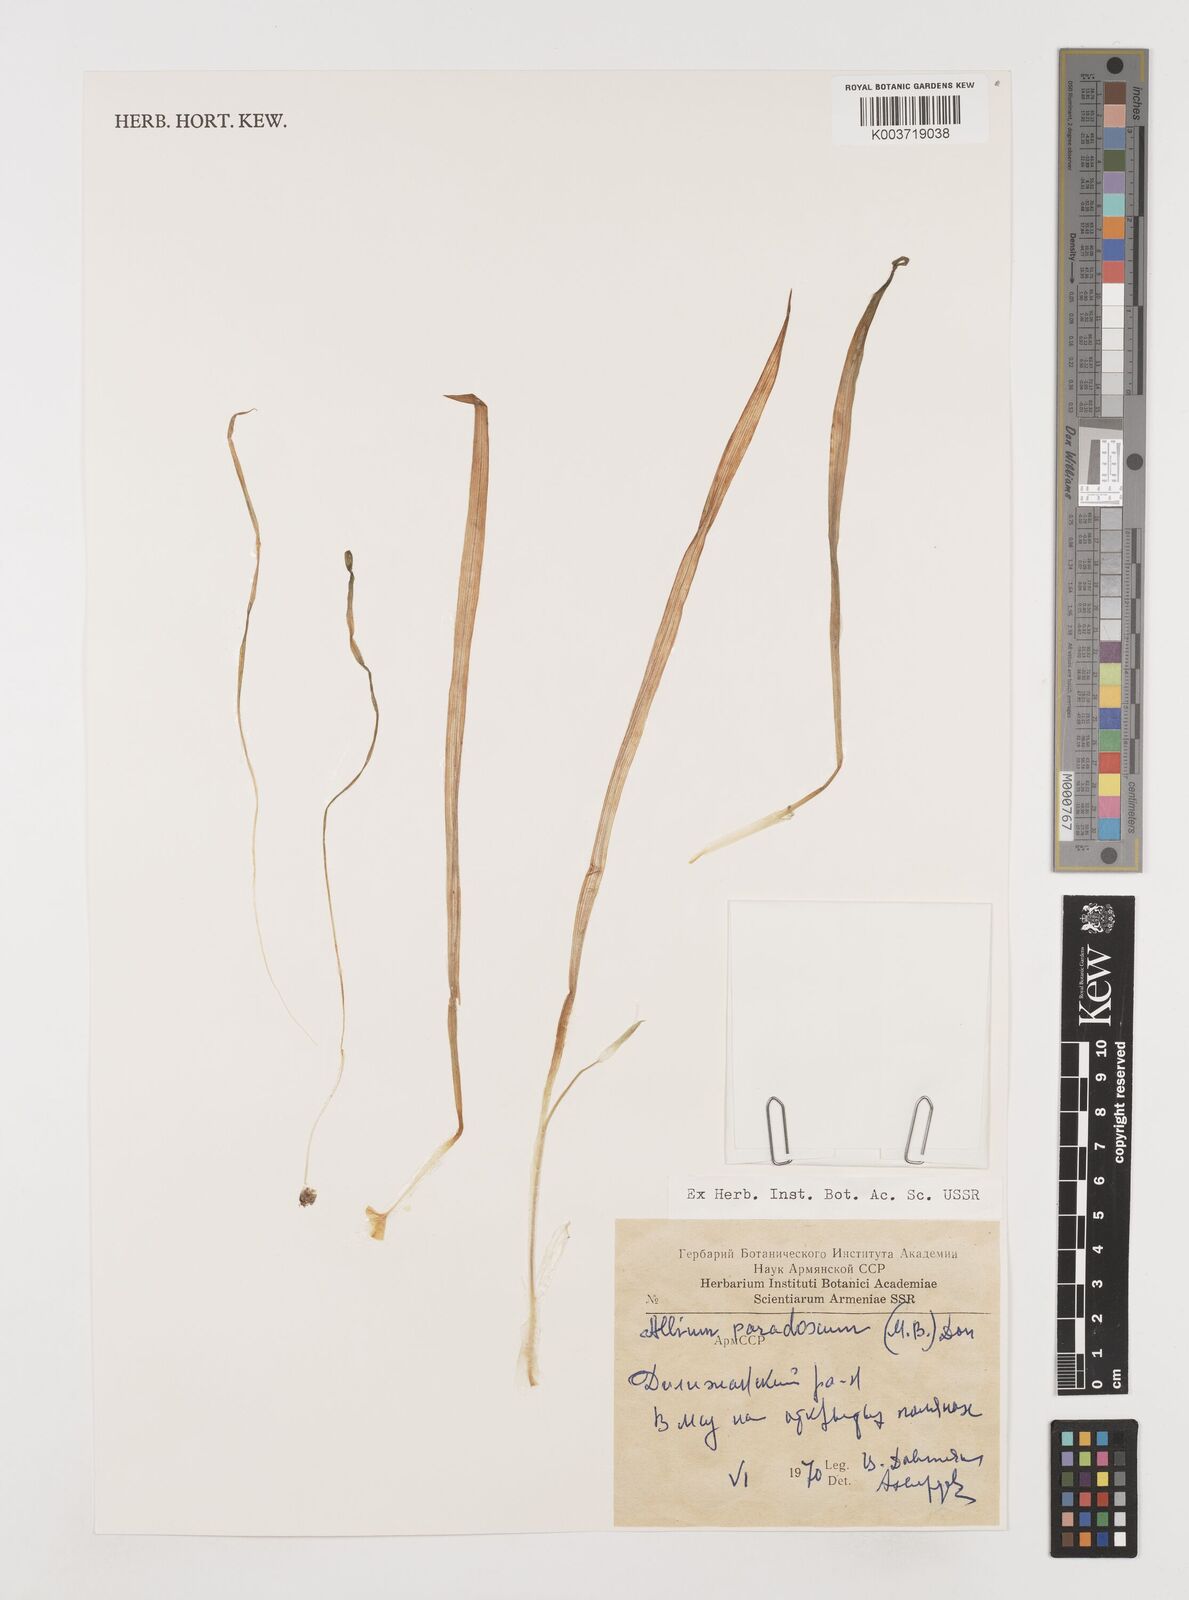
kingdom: Plantae
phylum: Tracheophyta
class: Liliopsida
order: Asparagales
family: Amaryllidaceae
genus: Allium
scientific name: Allium paradoxum
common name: Few-flowered garlic
